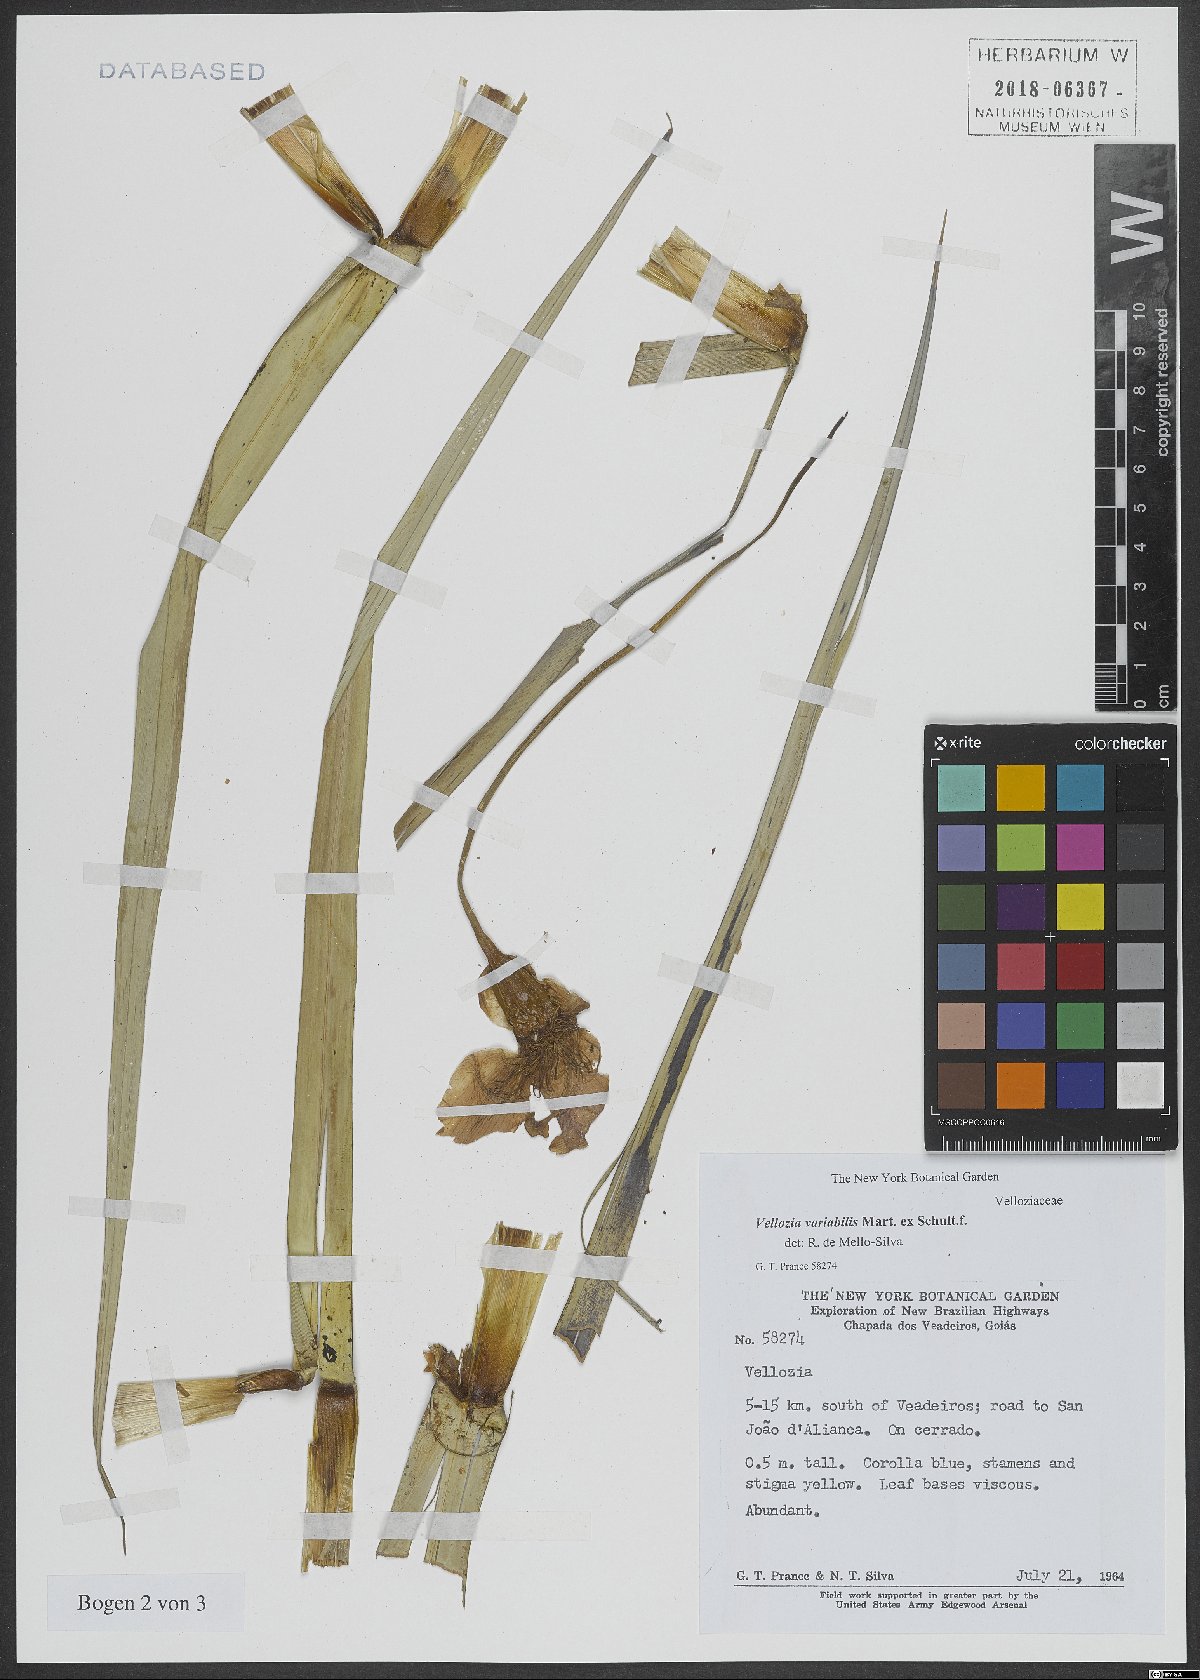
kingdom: Plantae
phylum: Tracheophyta
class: Liliopsida
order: Pandanales
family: Velloziaceae
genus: Vellozia
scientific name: Vellozia variabilis
